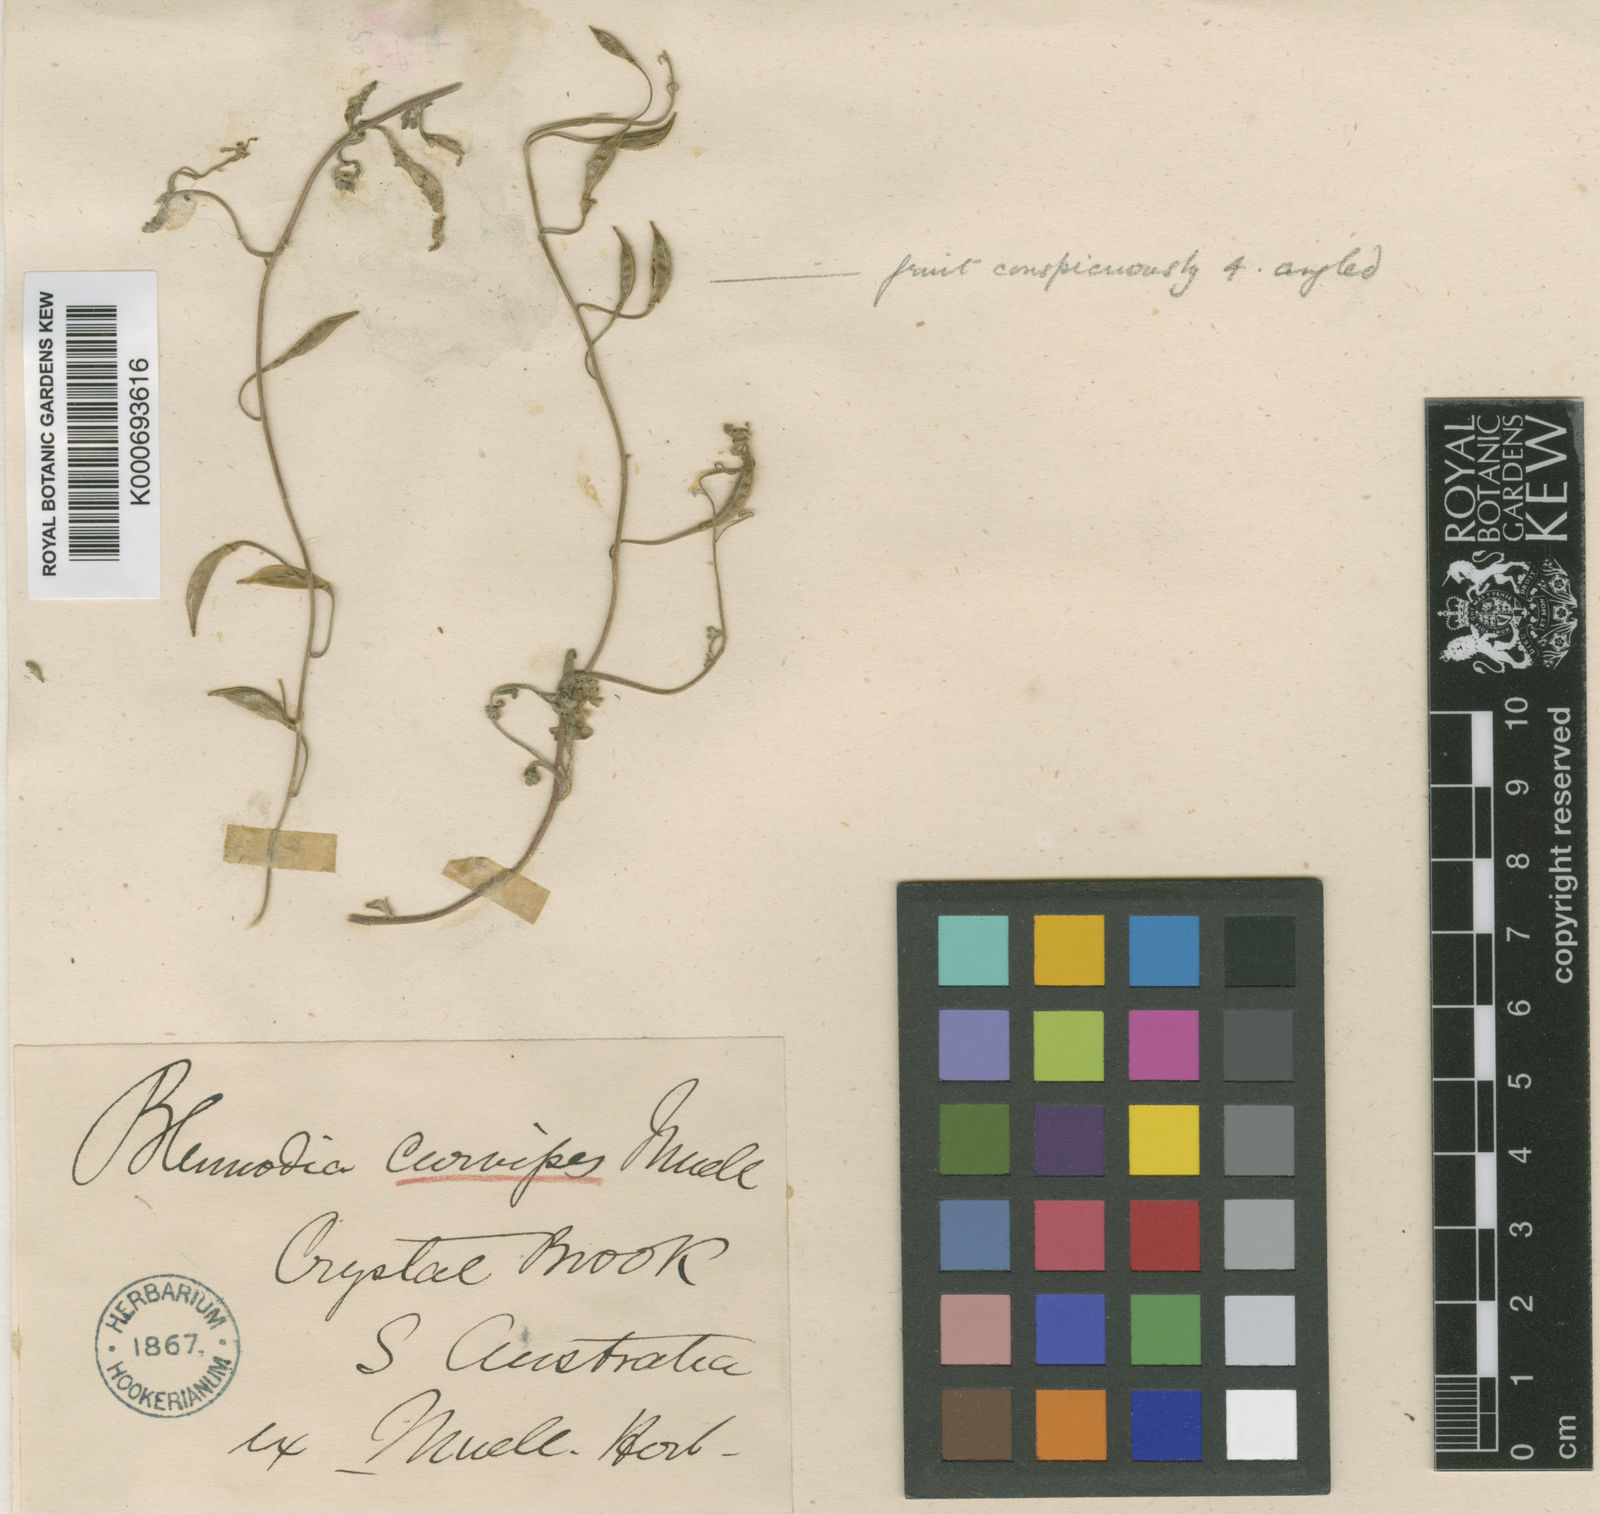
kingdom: Plantae
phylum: Tracheophyta
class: Magnoliopsida
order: Brassicales
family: Brassicaceae
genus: Blennodia
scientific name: Blennodia
